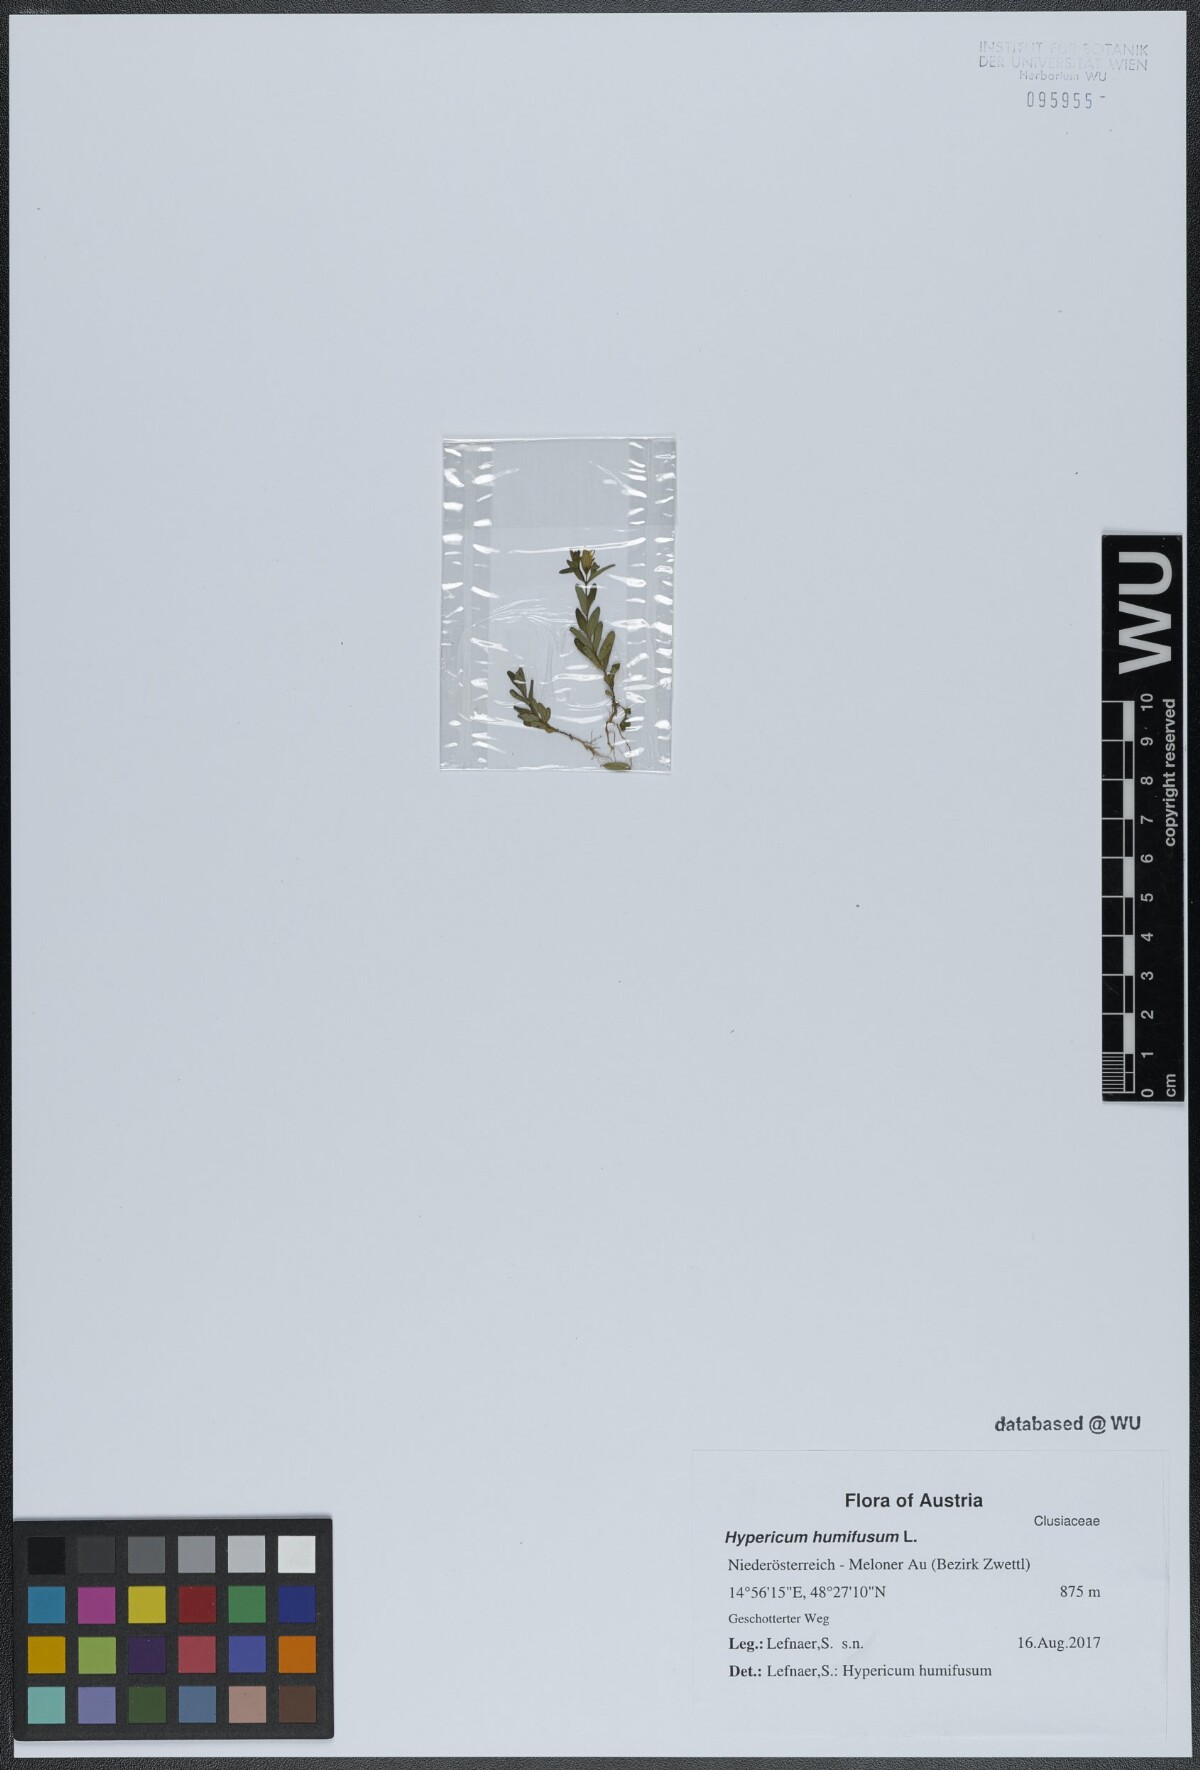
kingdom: Plantae
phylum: Tracheophyta
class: Magnoliopsida
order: Malpighiales
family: Hypericaceae
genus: Hypericum
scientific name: Hypericum humifusum
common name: Trailing st. john's-wort
